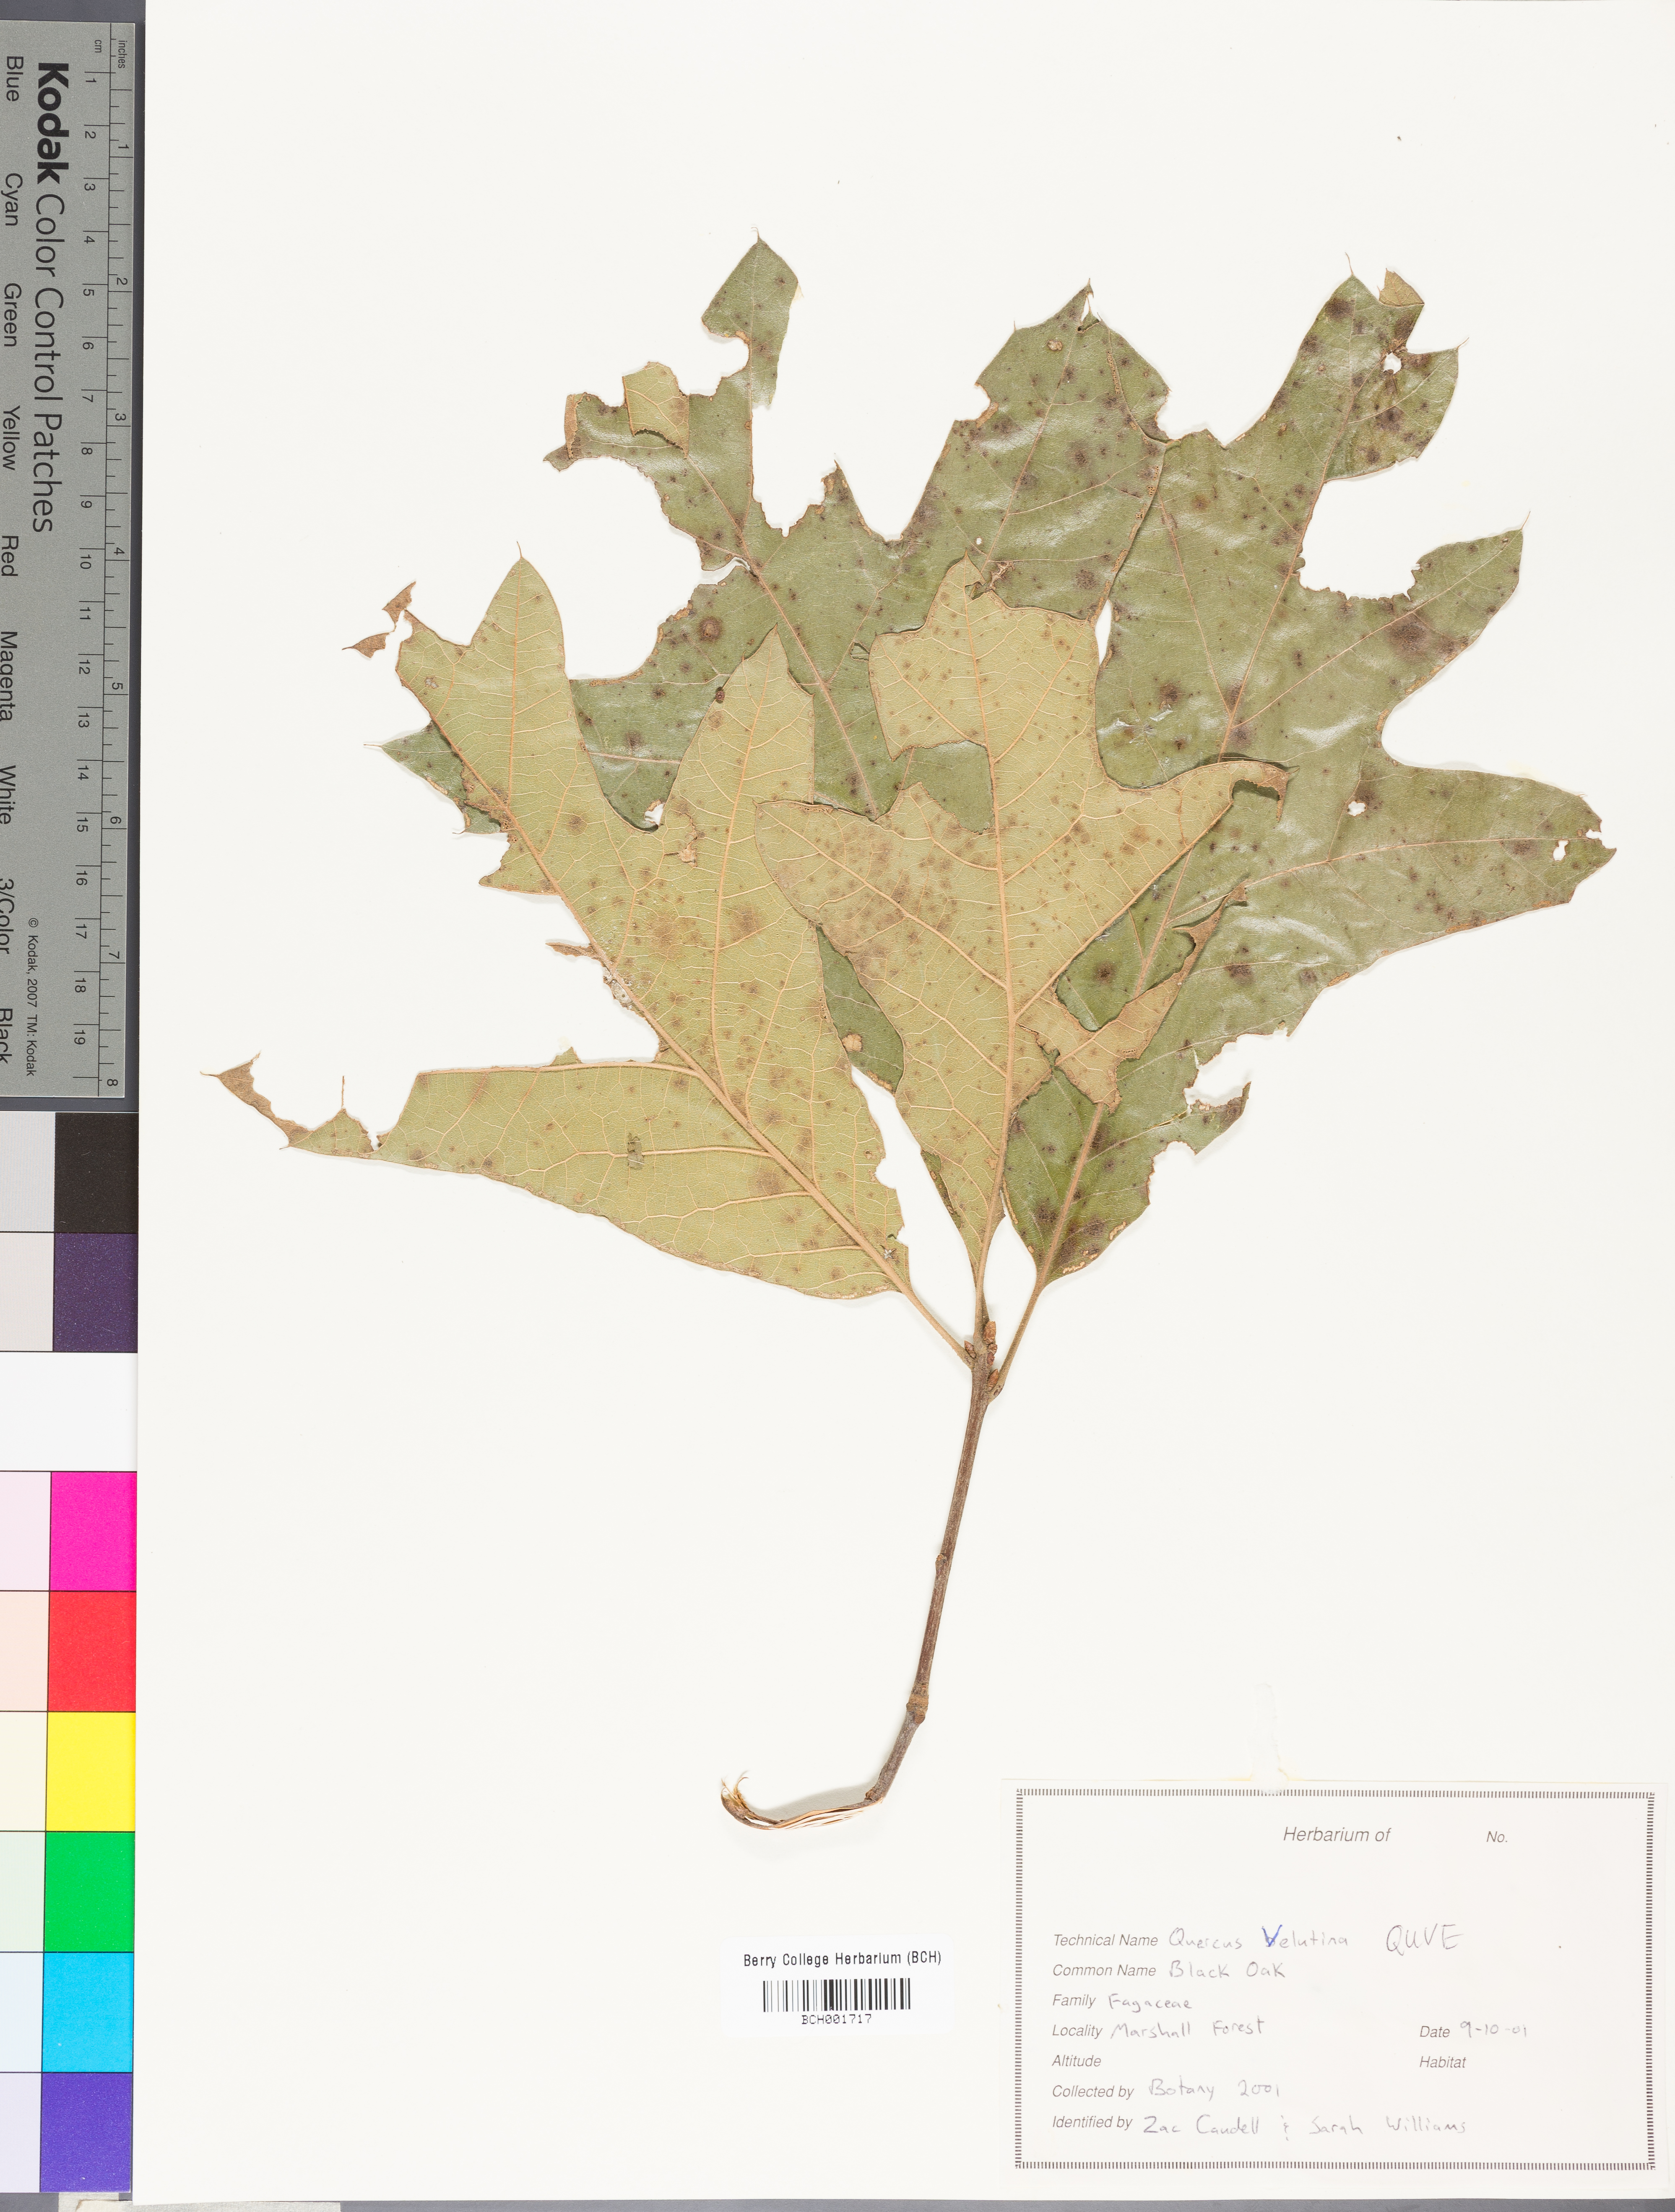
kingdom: Plantae
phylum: Tracheophyta
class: Magnoliopsida
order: Fagales
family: Fagaceae
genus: Quercus
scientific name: Quercus velutina
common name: Black oak
